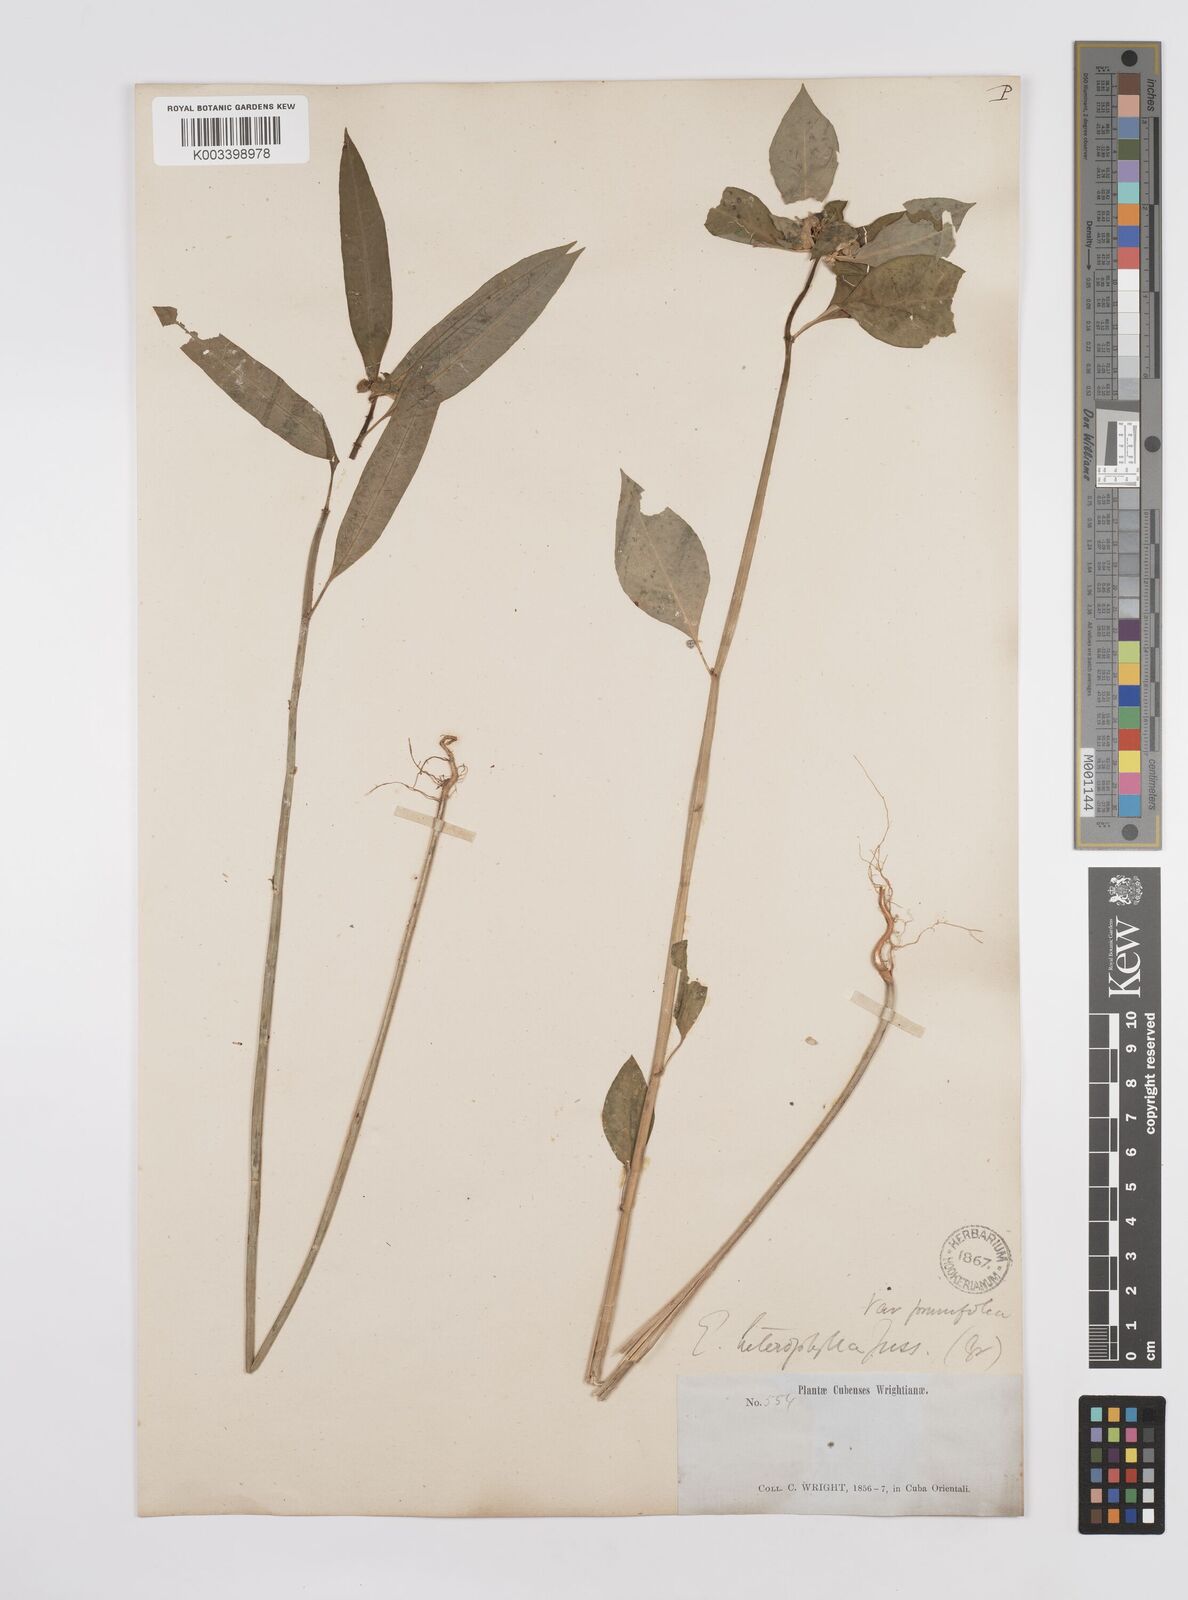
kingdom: Plantae
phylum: Tracheophyta
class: Magnoliopsida
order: Malpighiales
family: Euphorbiaceae
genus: Euphorbia
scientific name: Euphorbia heterophylla
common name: Mexican fireplant
